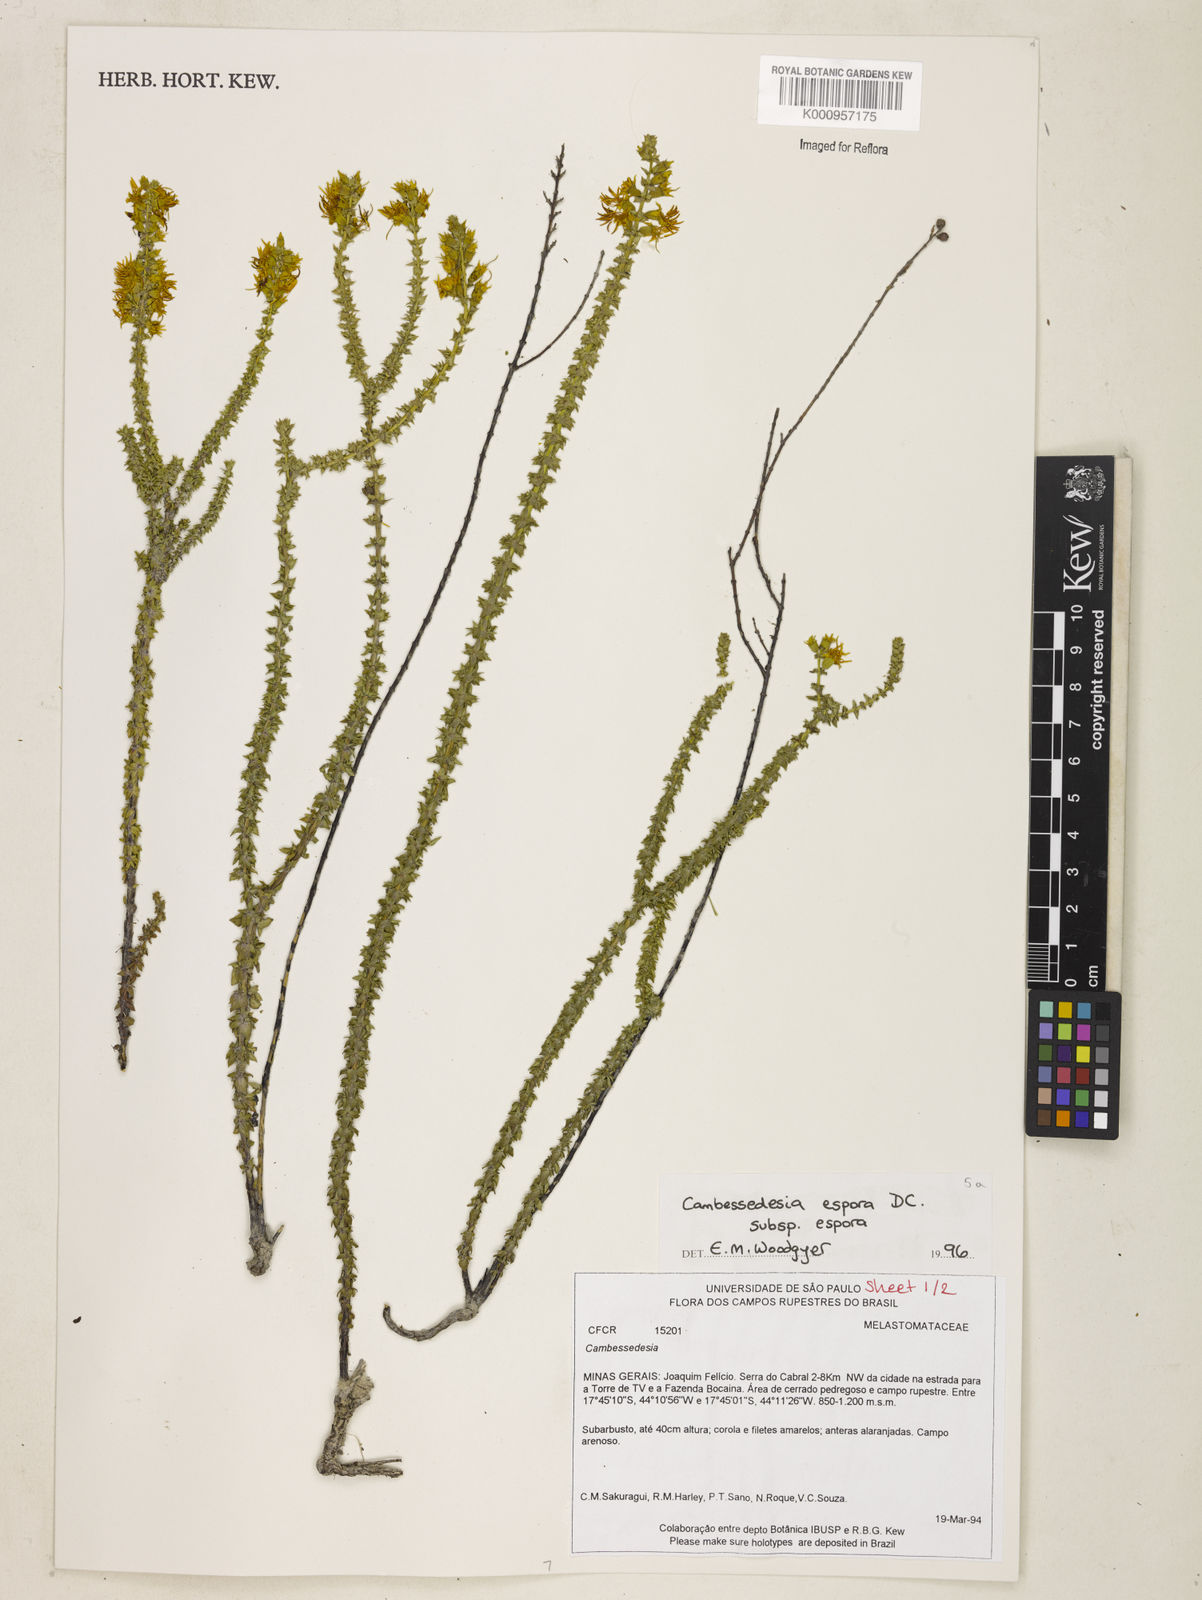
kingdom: Plantae
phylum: Tracheophyta
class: Magnoliopsida
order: Myrtales
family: Melastomataceae
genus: Cambessedesia
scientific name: Cambessedesia espora
